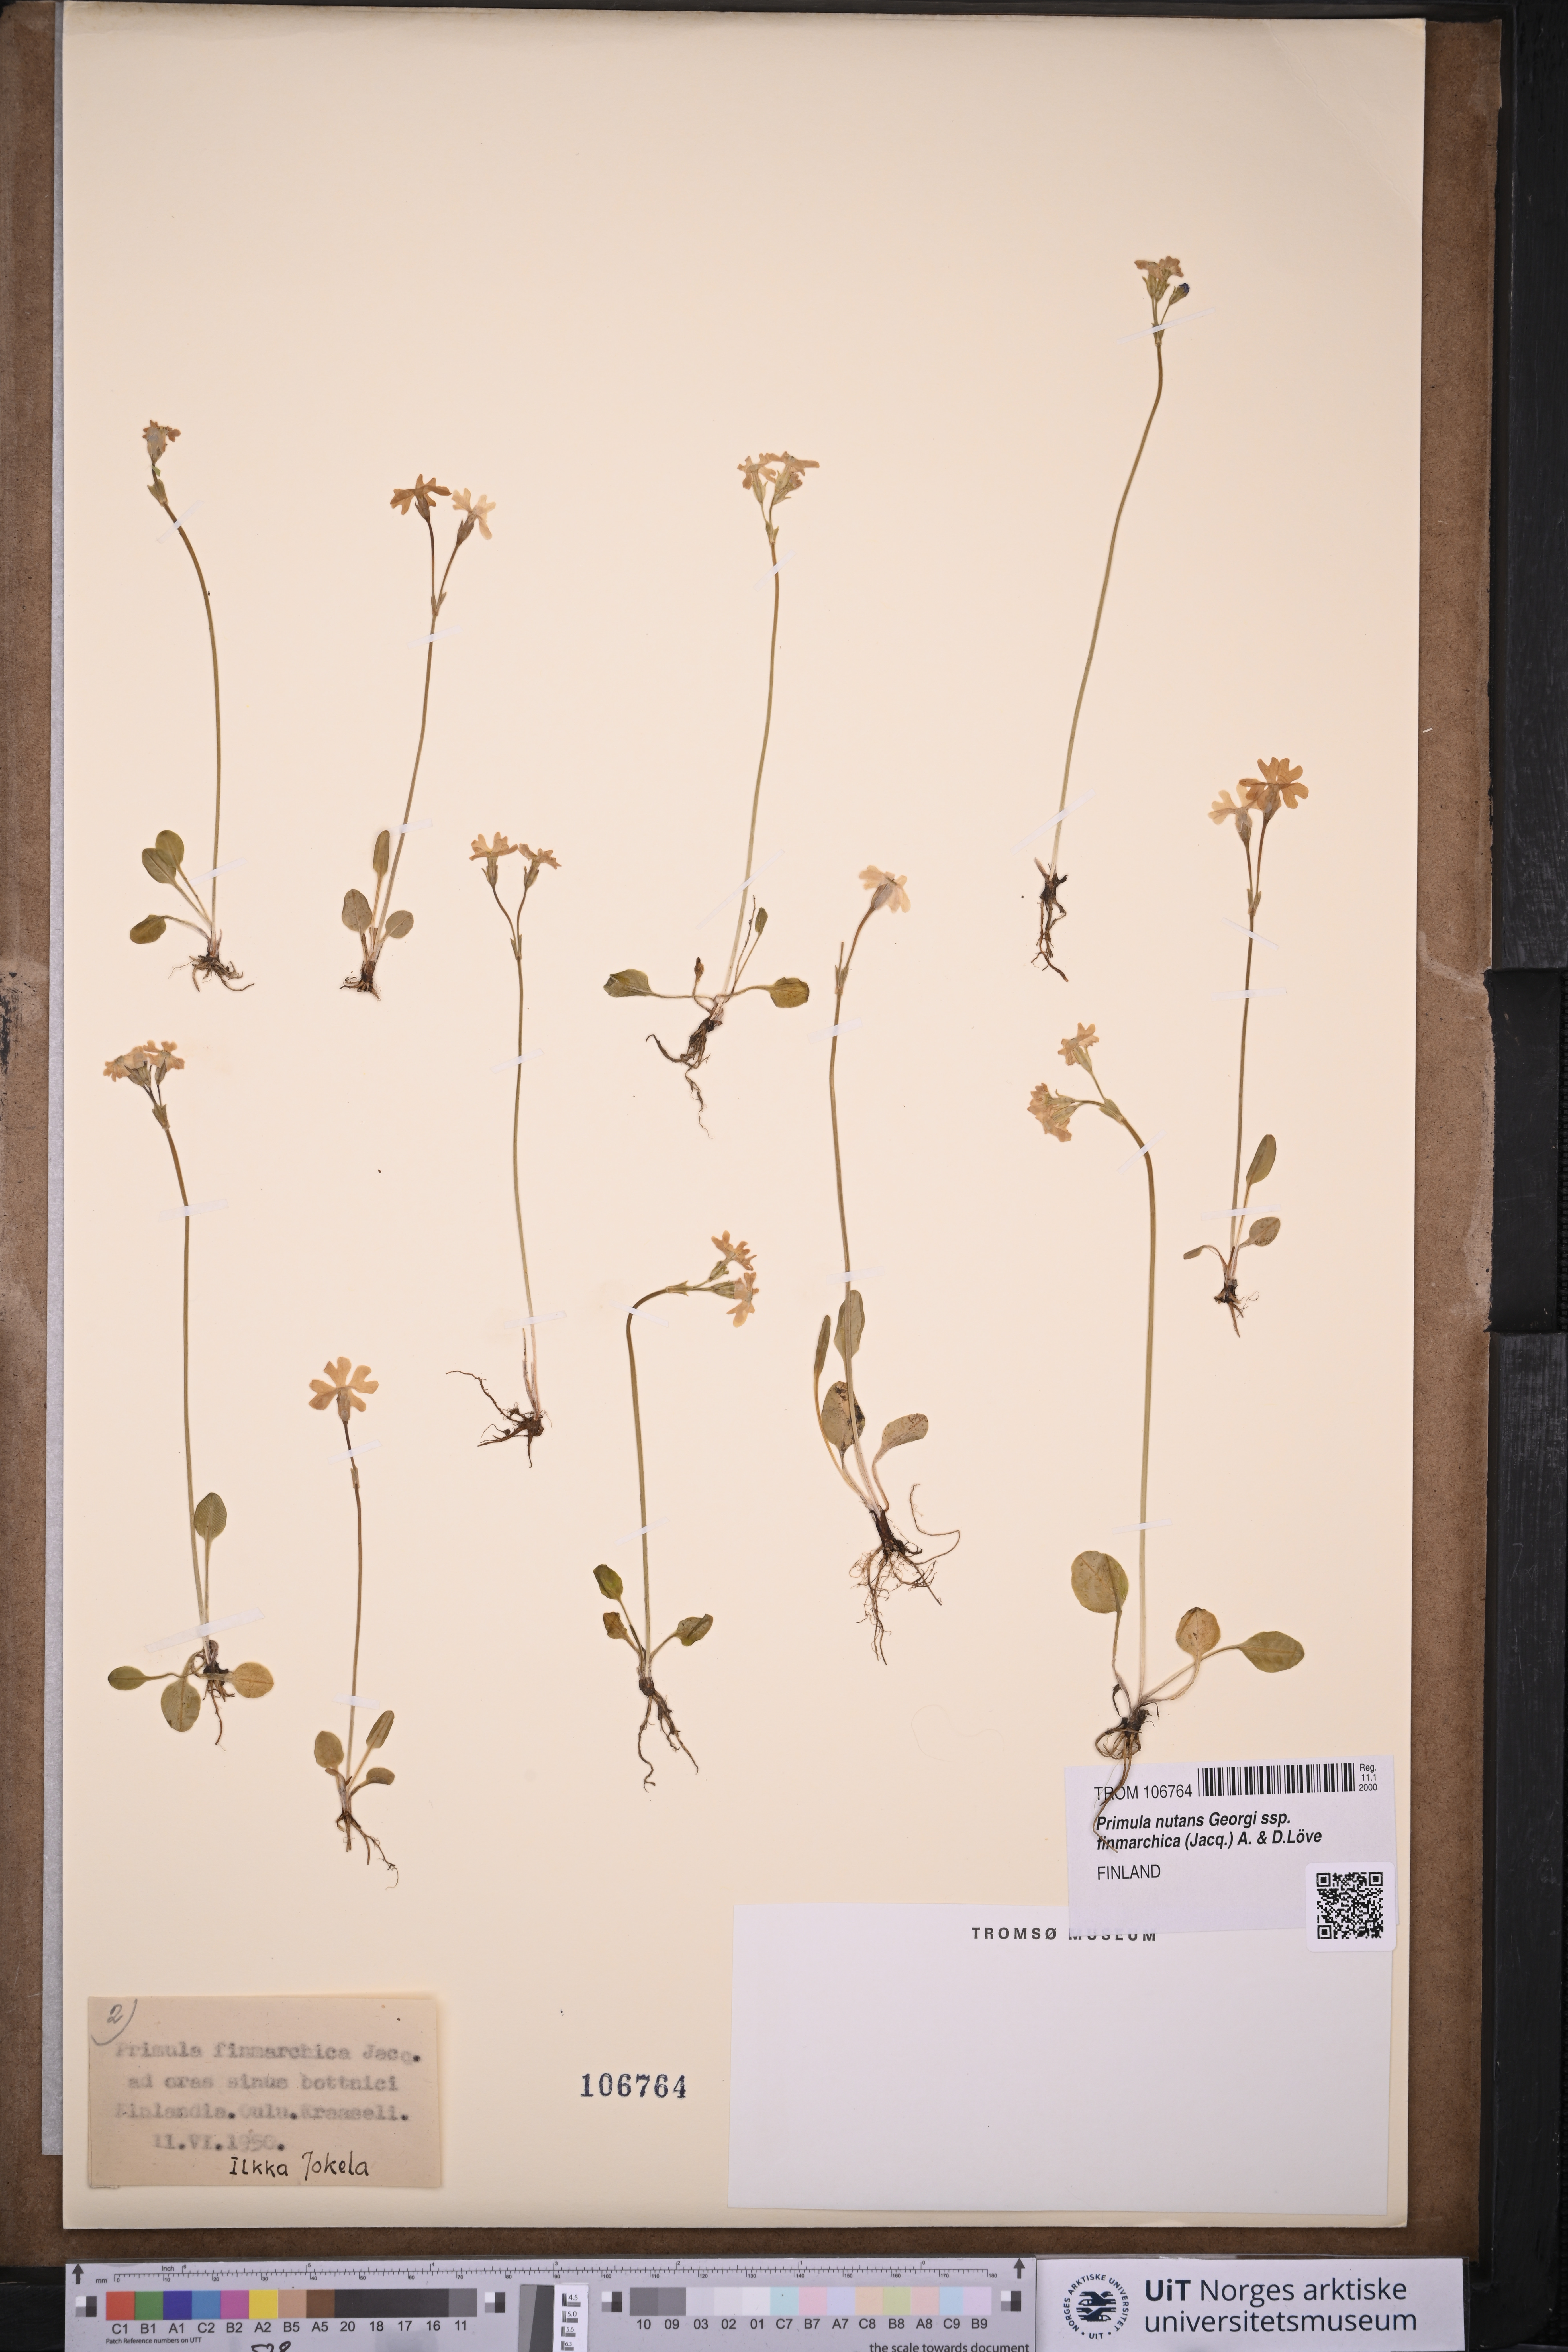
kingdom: Plantae
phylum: Tracheophyta
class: Magnoliopsida
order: Ericales
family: Primulaceae
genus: Primula
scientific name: Primula nutans
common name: Siberian primrose
